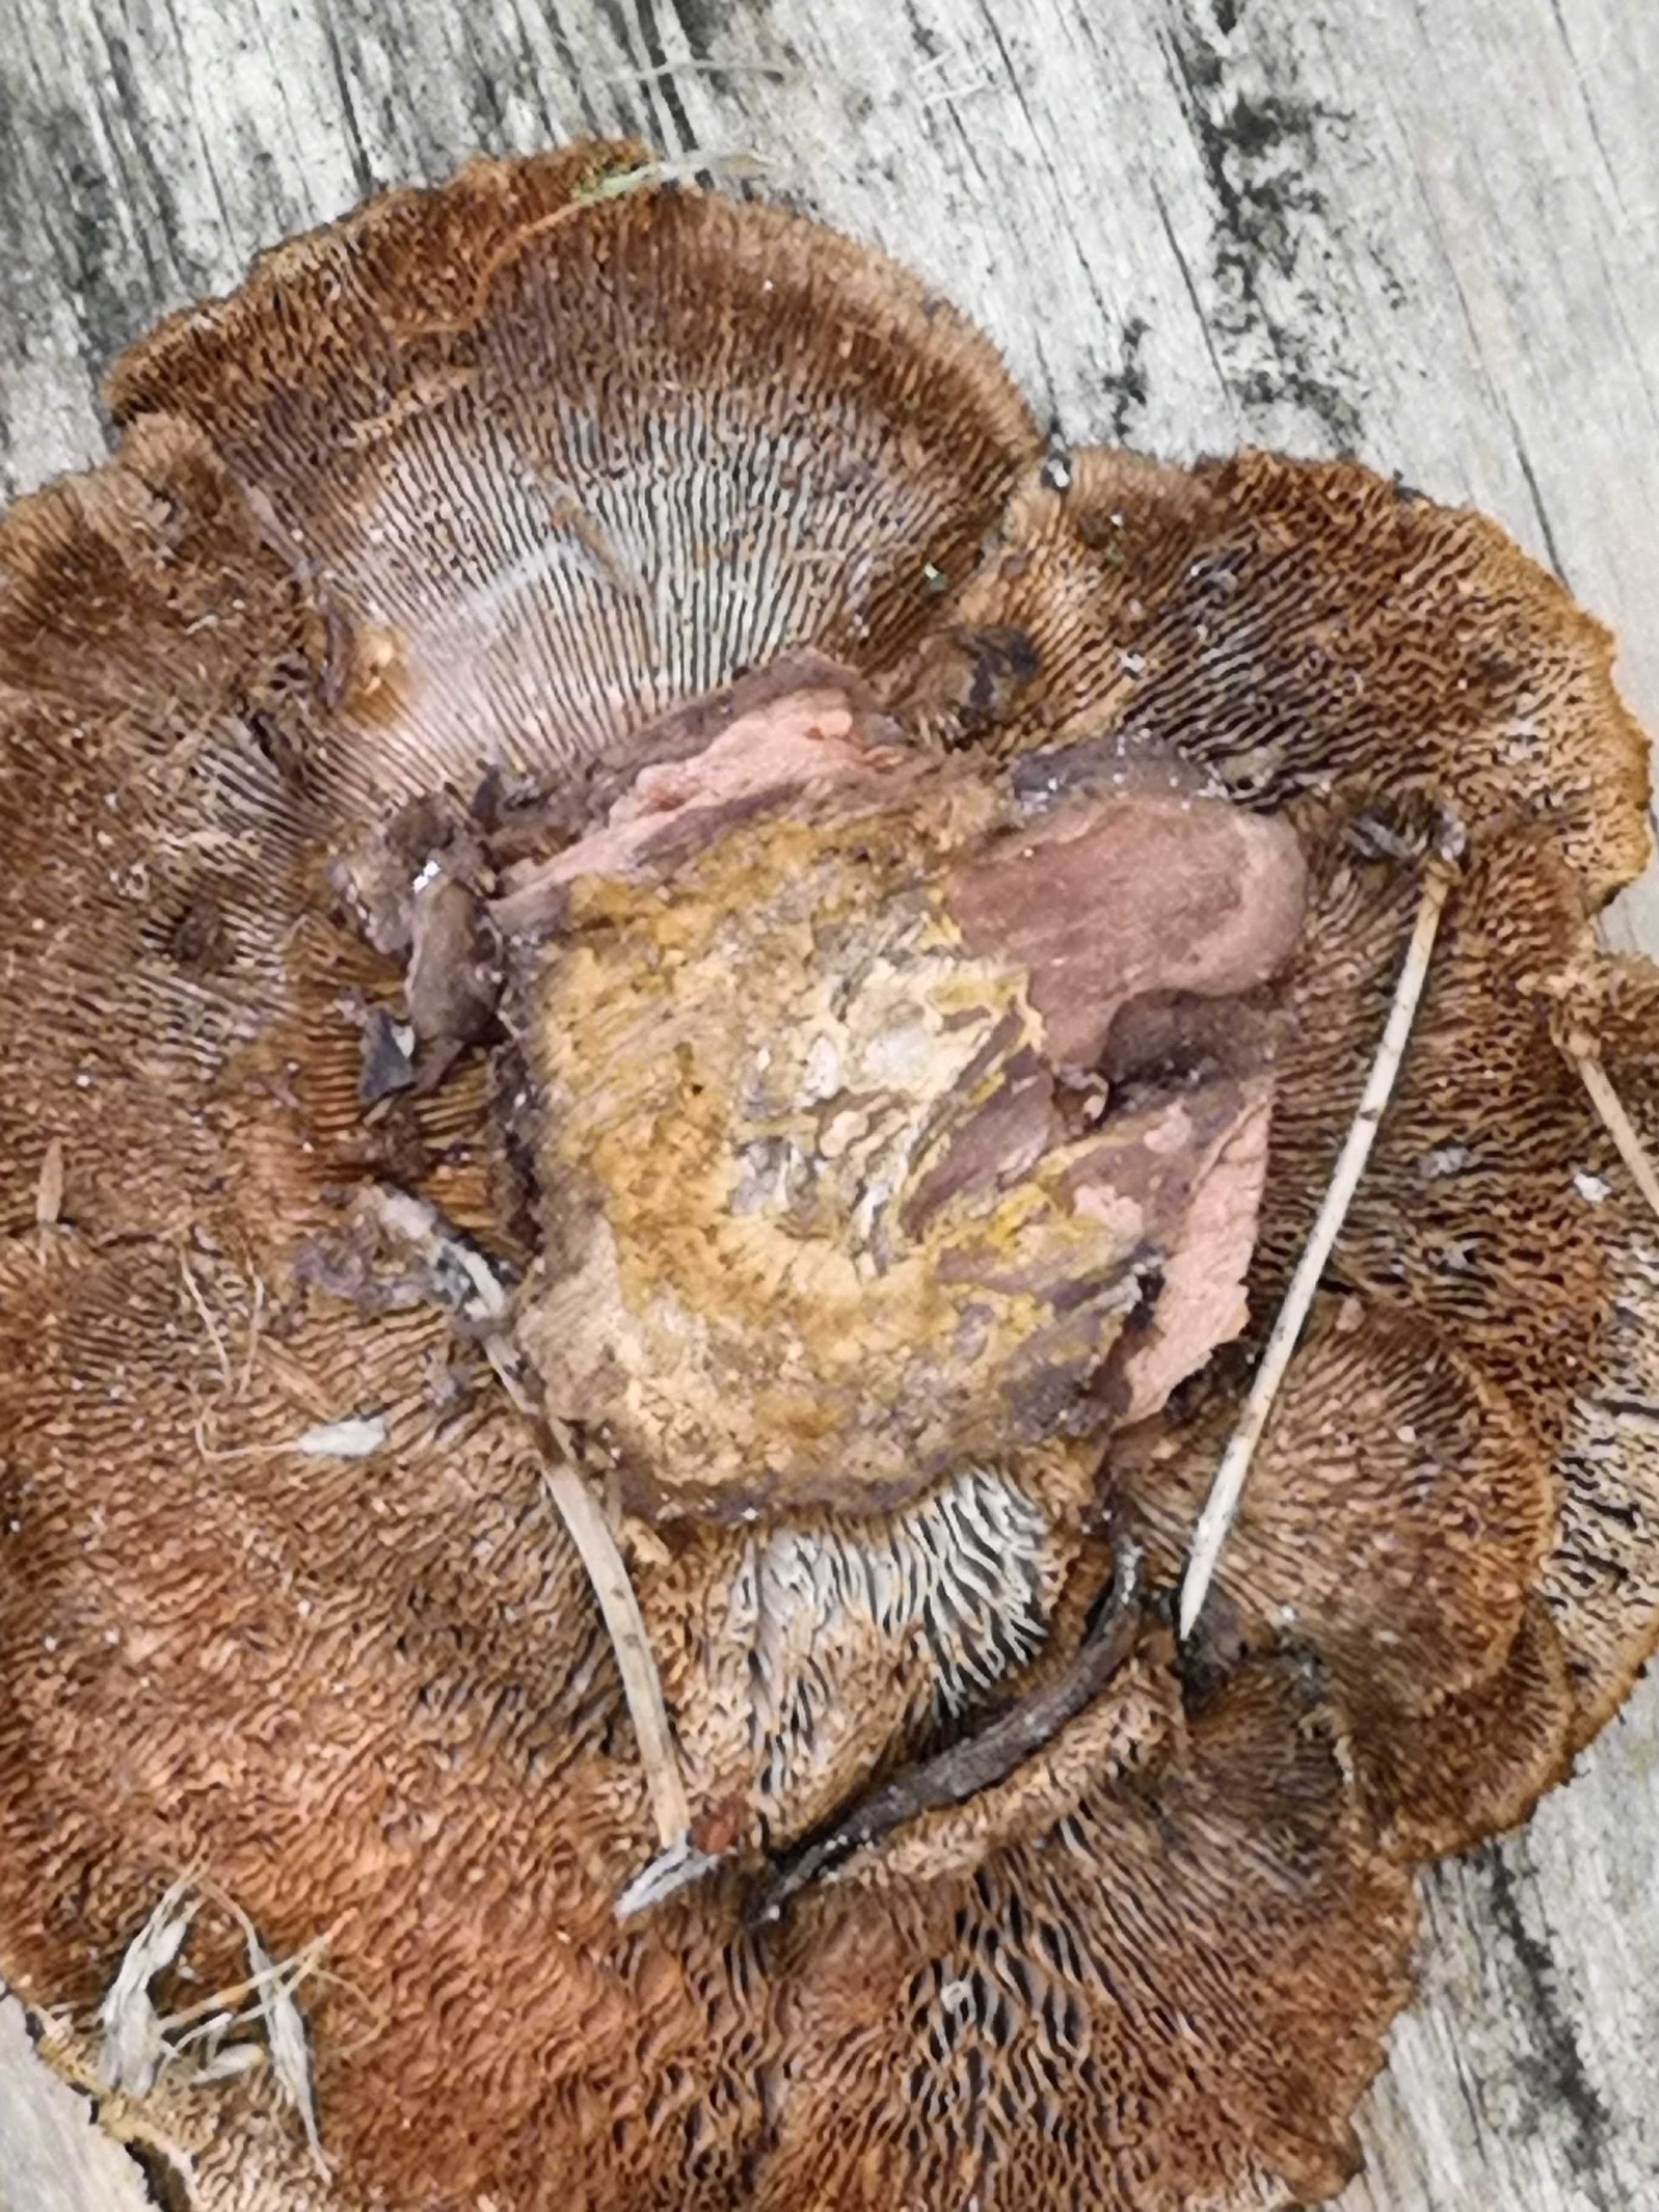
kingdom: Fungi
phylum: Basidiomycota
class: Agaricomycetes
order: Gloeophyllales
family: Gloeophyllaceae
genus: Gloeophyllum
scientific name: Gloeophyllum sepiarium
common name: fyrre-korkhat
